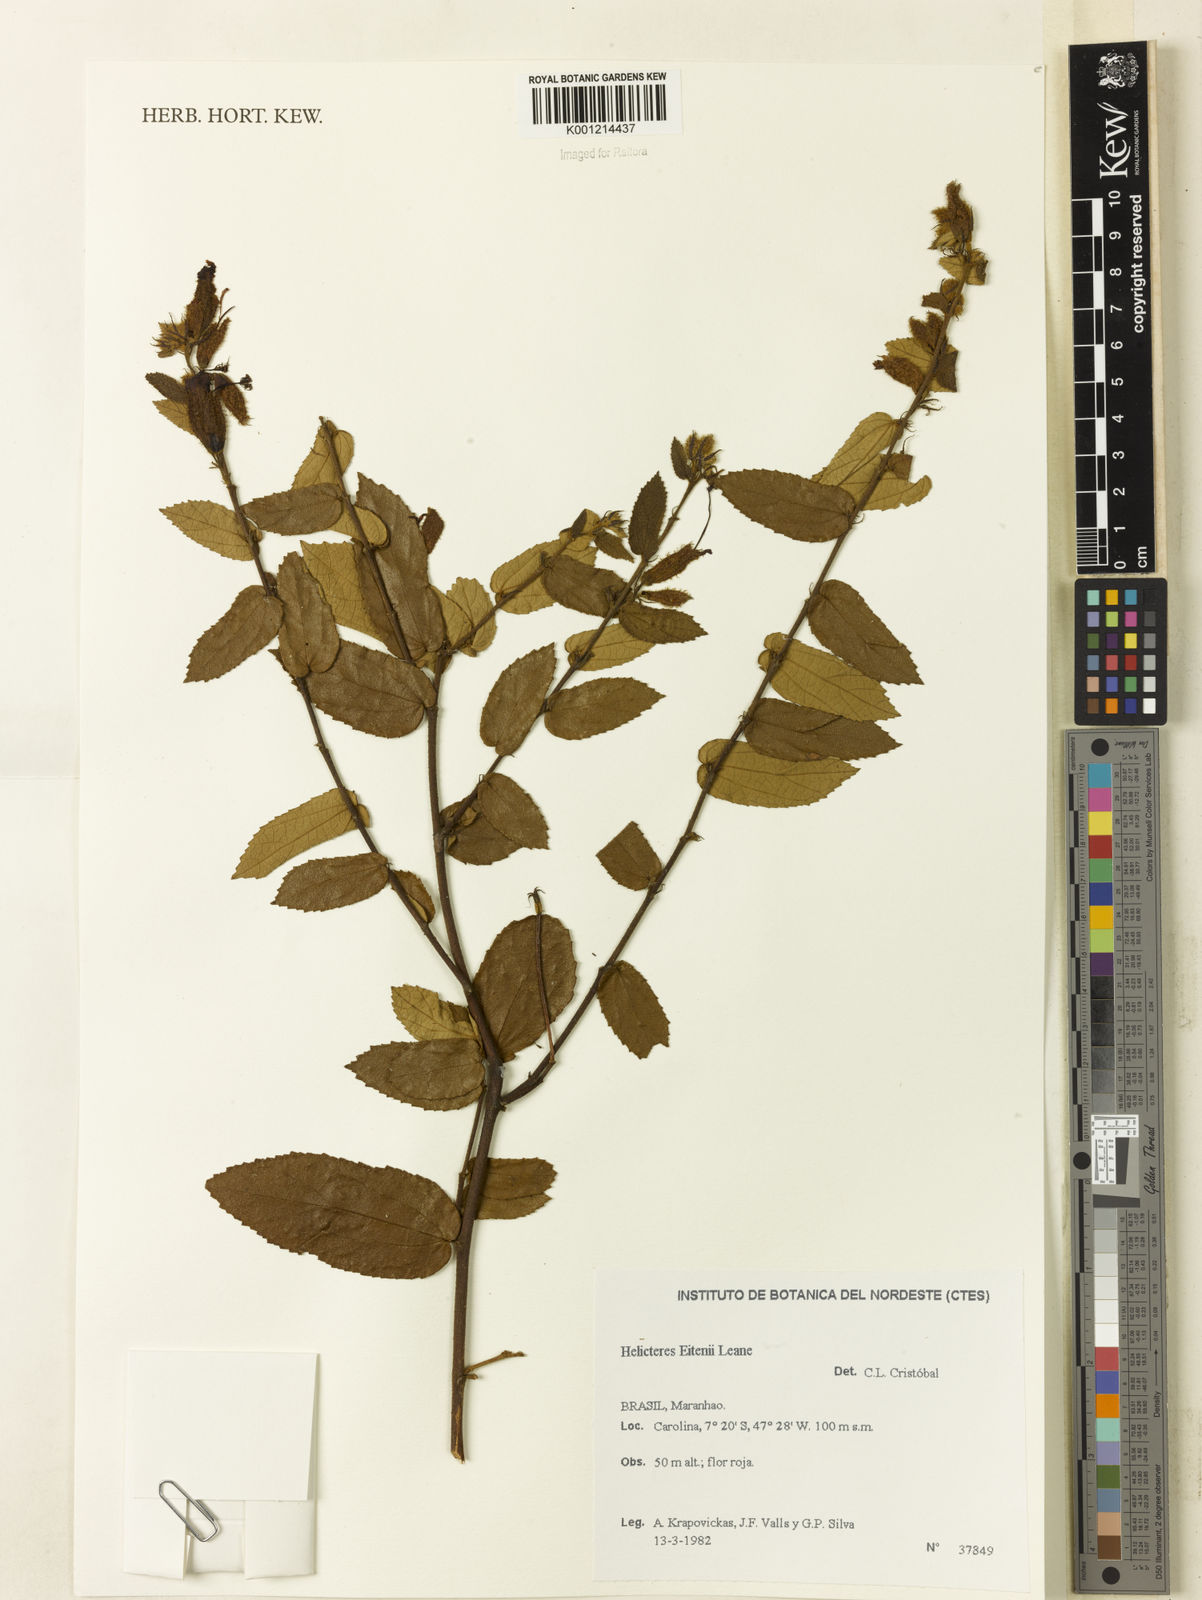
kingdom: Plantae
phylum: Tracheophyta
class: Magnoliopsida
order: Malvales
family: Malvaceae
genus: Helicteres
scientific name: Helicteres eitenii
